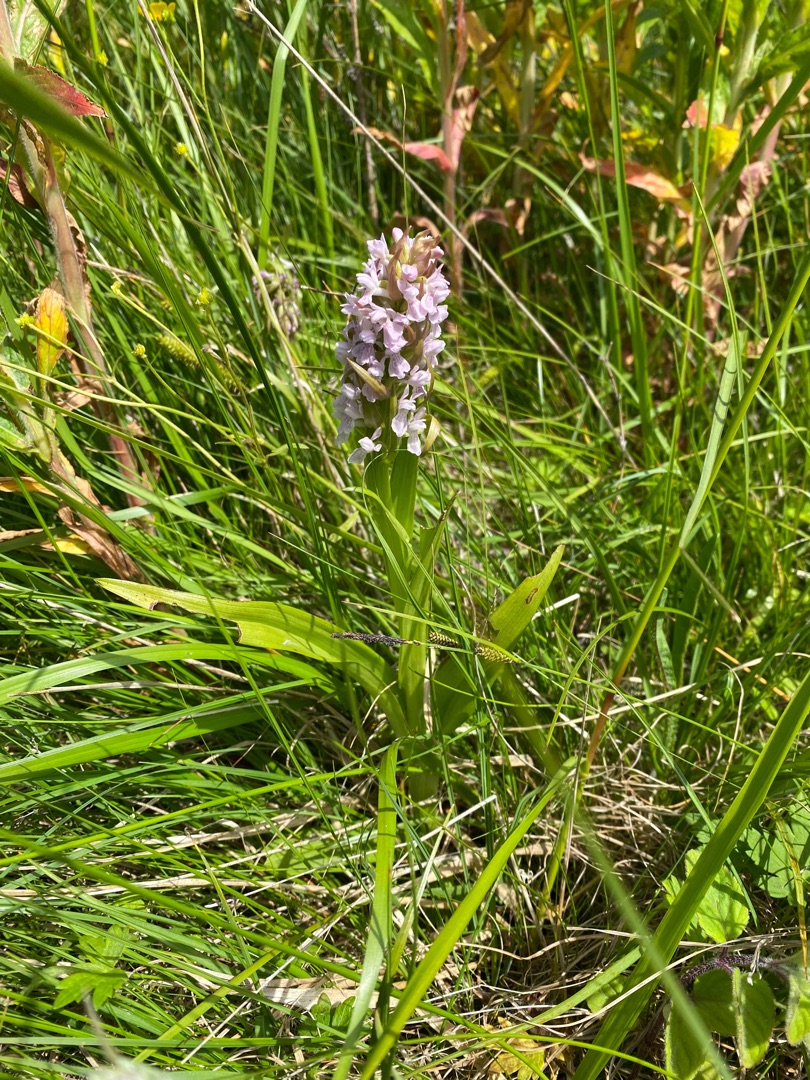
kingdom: Plantae
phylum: Tracheophyta
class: Liliopsida
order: Asparagales
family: Orchidaceae
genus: Dactylorhiza
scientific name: Dactylorhiza incarnata
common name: Kødfarvet gøgeurt
